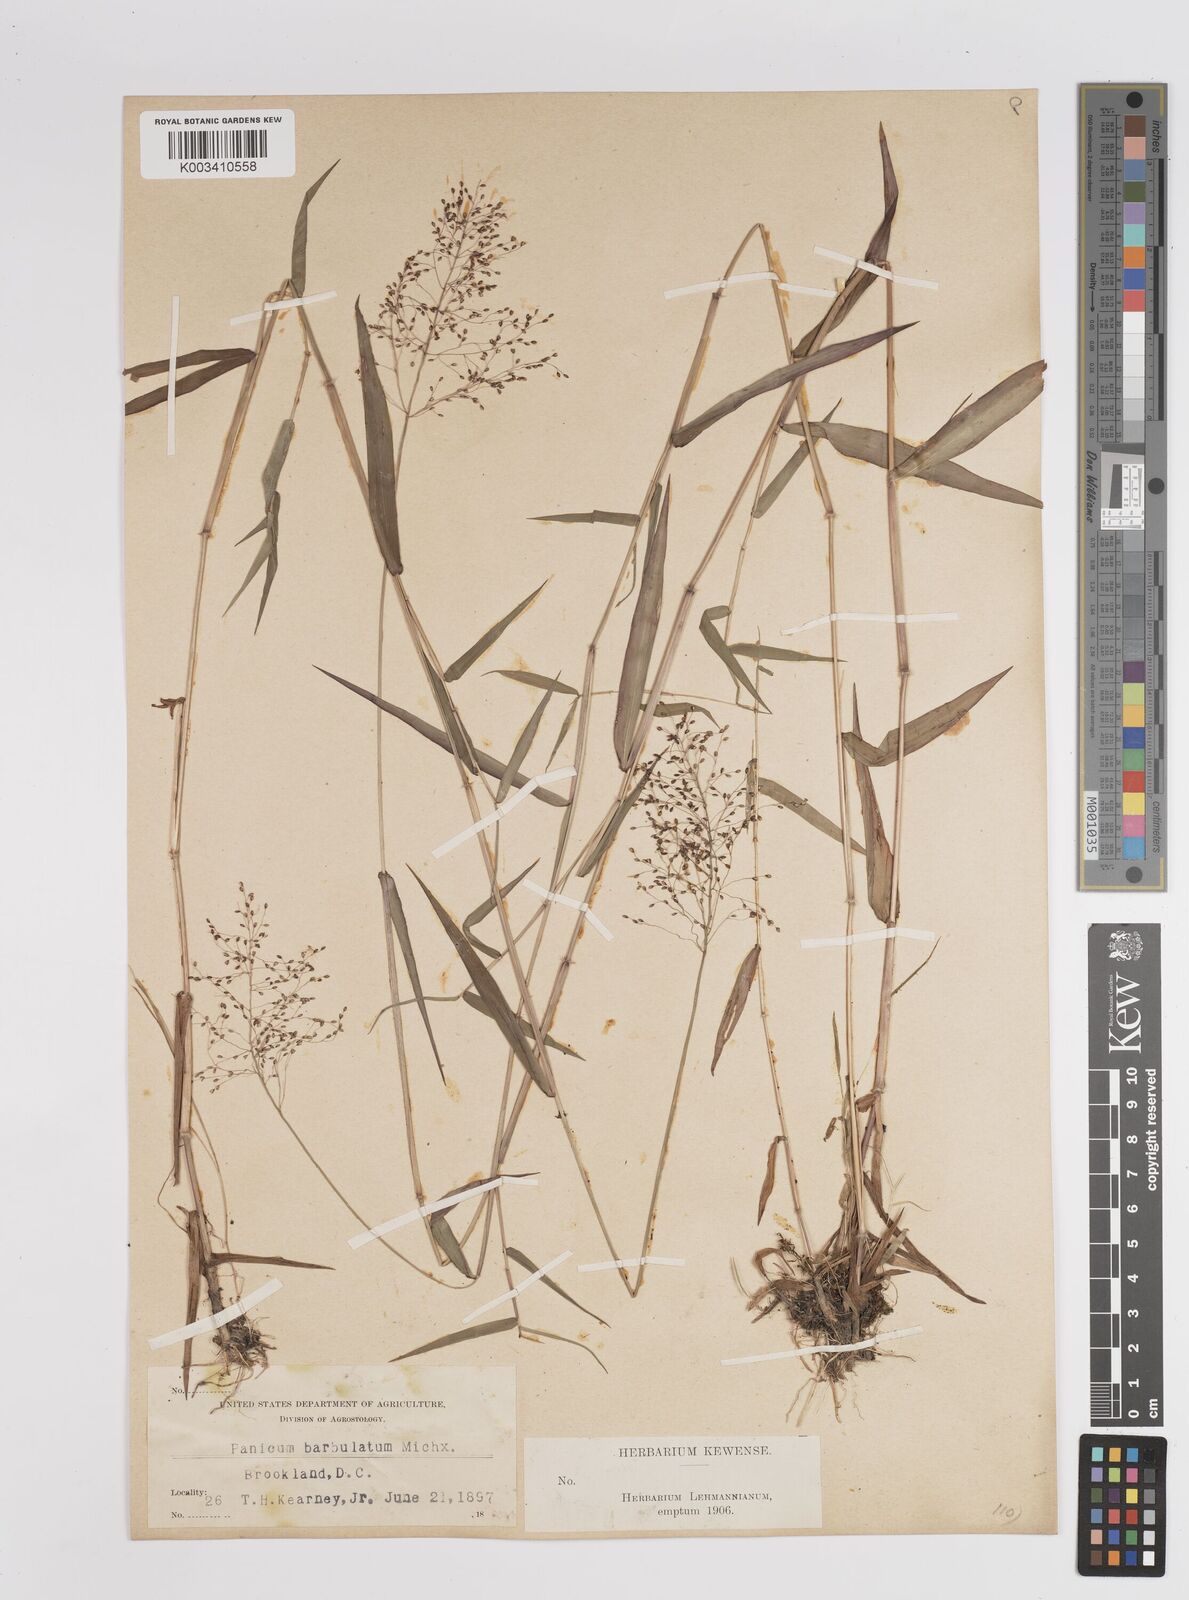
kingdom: Plantae
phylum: Tracheophyta
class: Liliopsida
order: Poales
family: Poaceae
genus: Dichanthelium
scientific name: Dichanthelium dichotomum
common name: Cypress panicgrass
